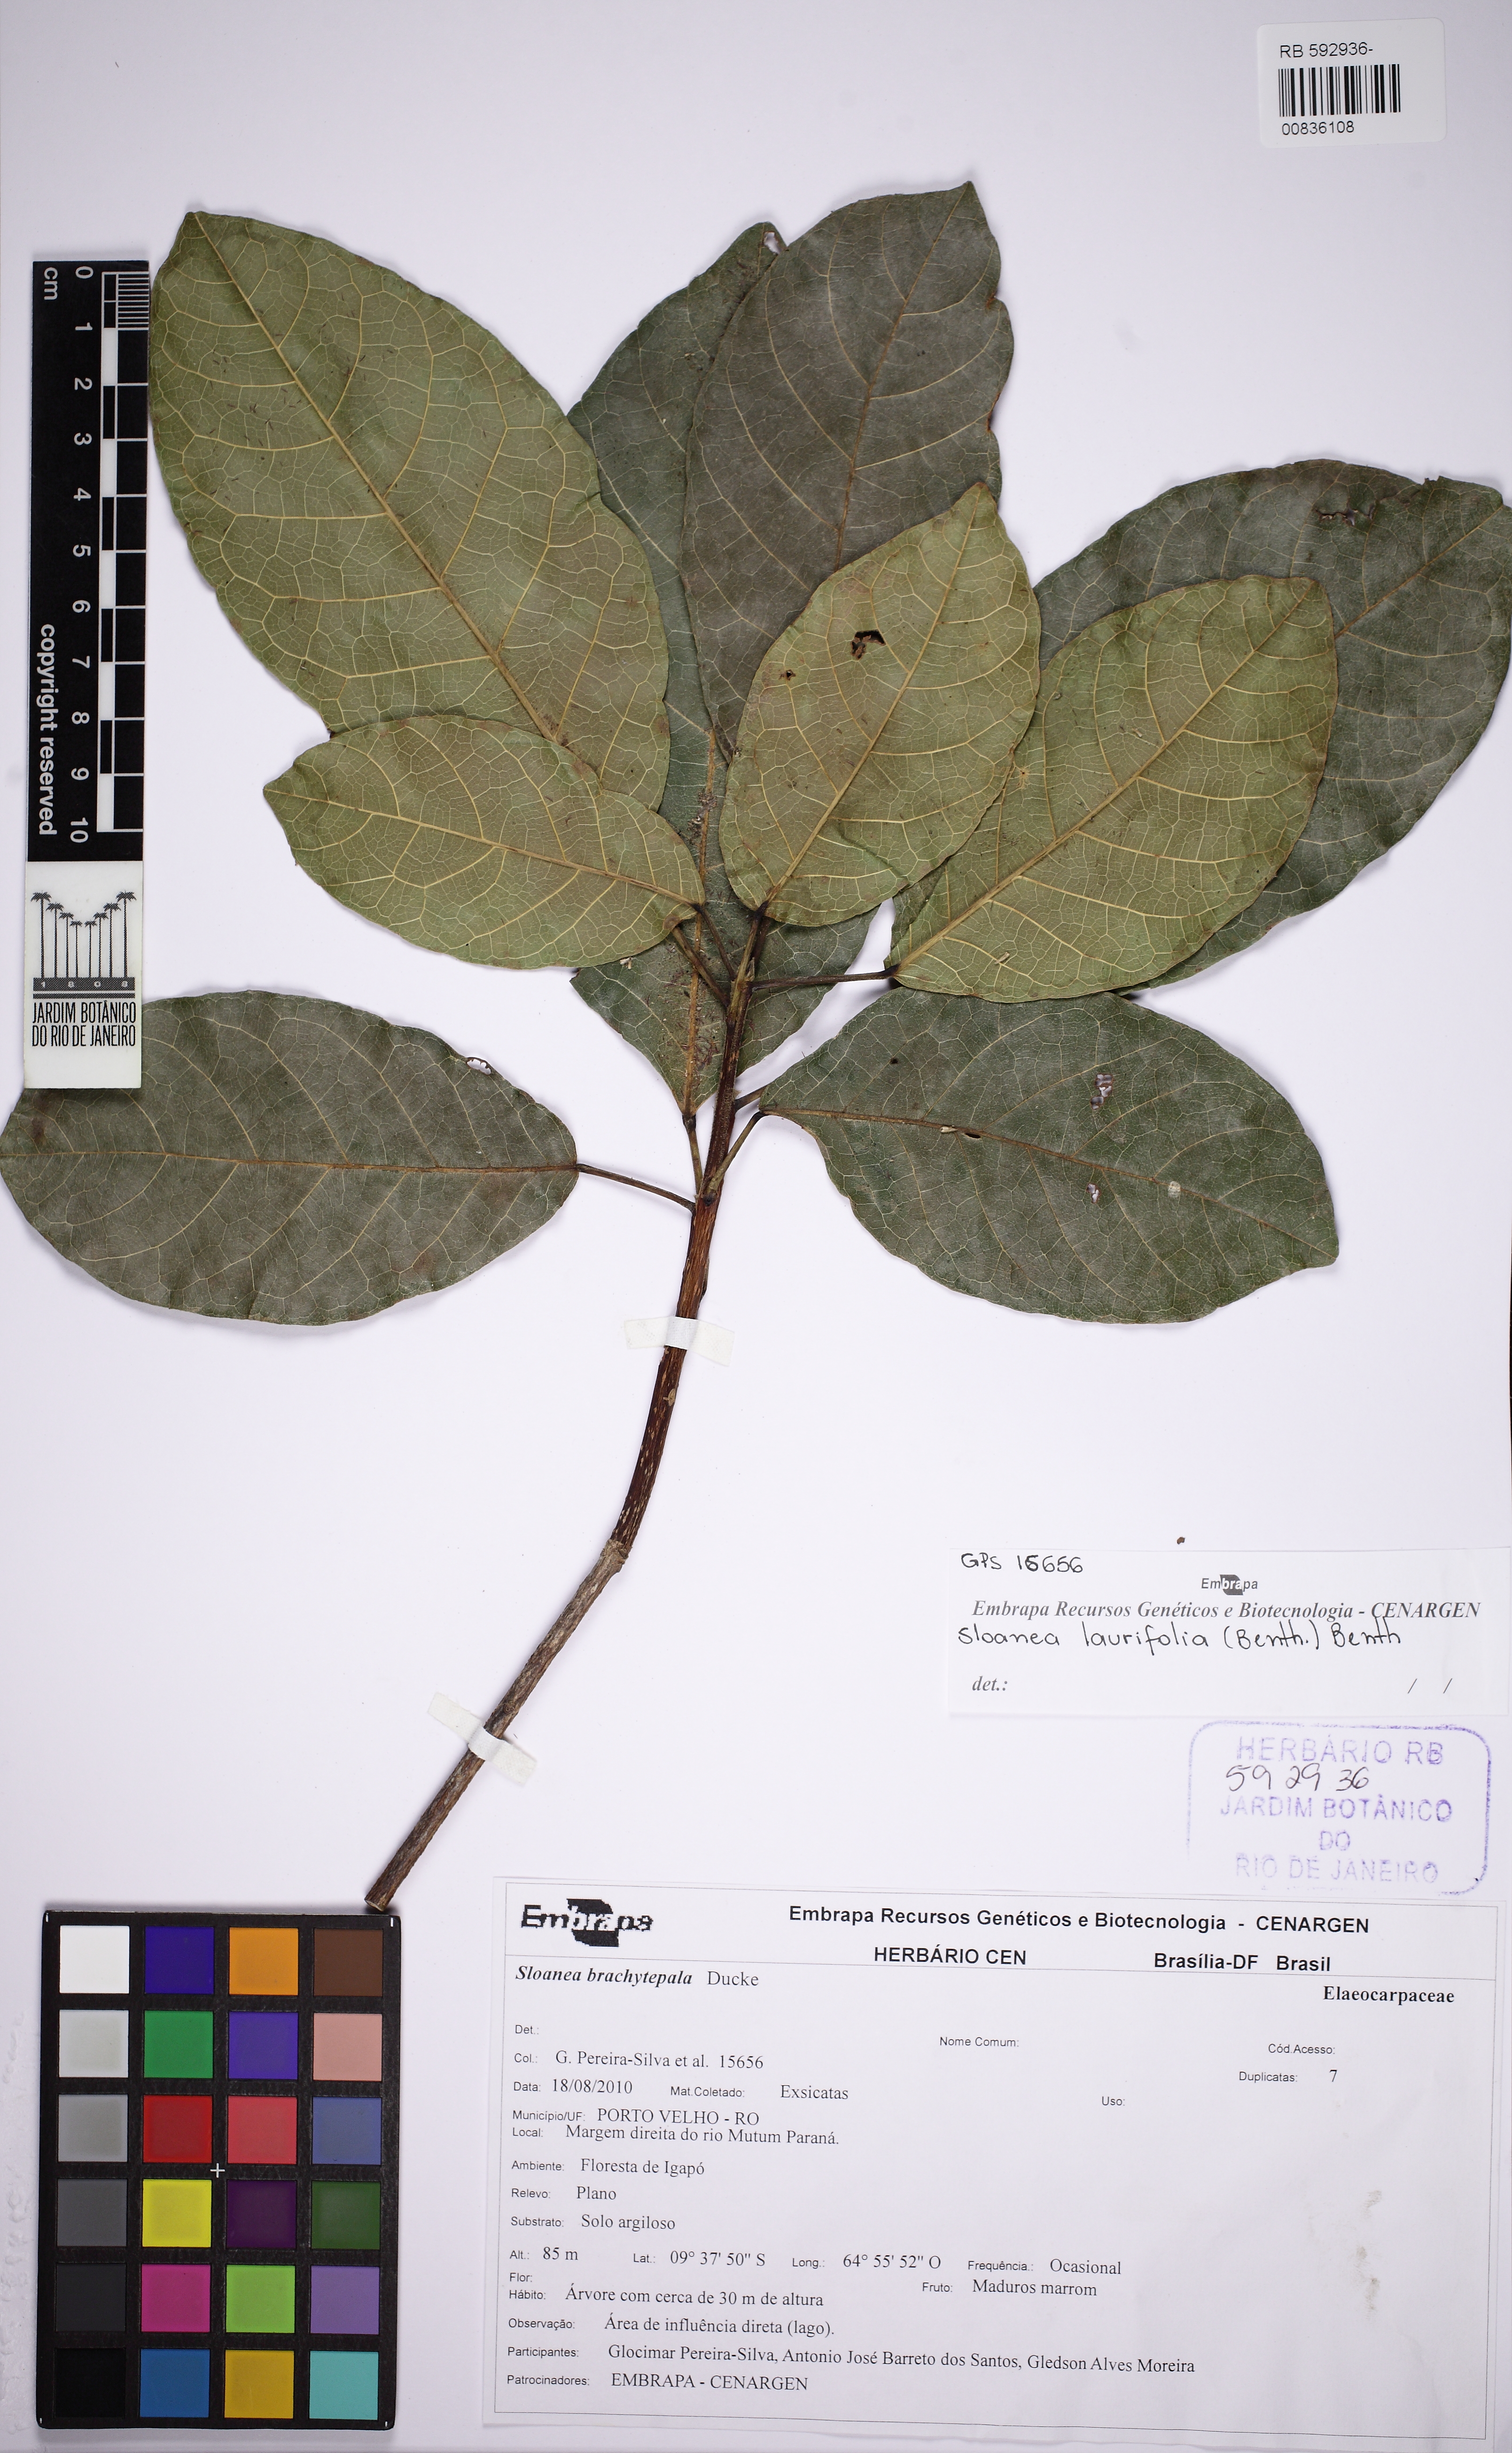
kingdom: Plantae
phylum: Tracheophyta
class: Magnoliopsida
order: Oxalidales
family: Elaeocarpaceae
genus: Sloanea
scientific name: Sloanea laurifolia
